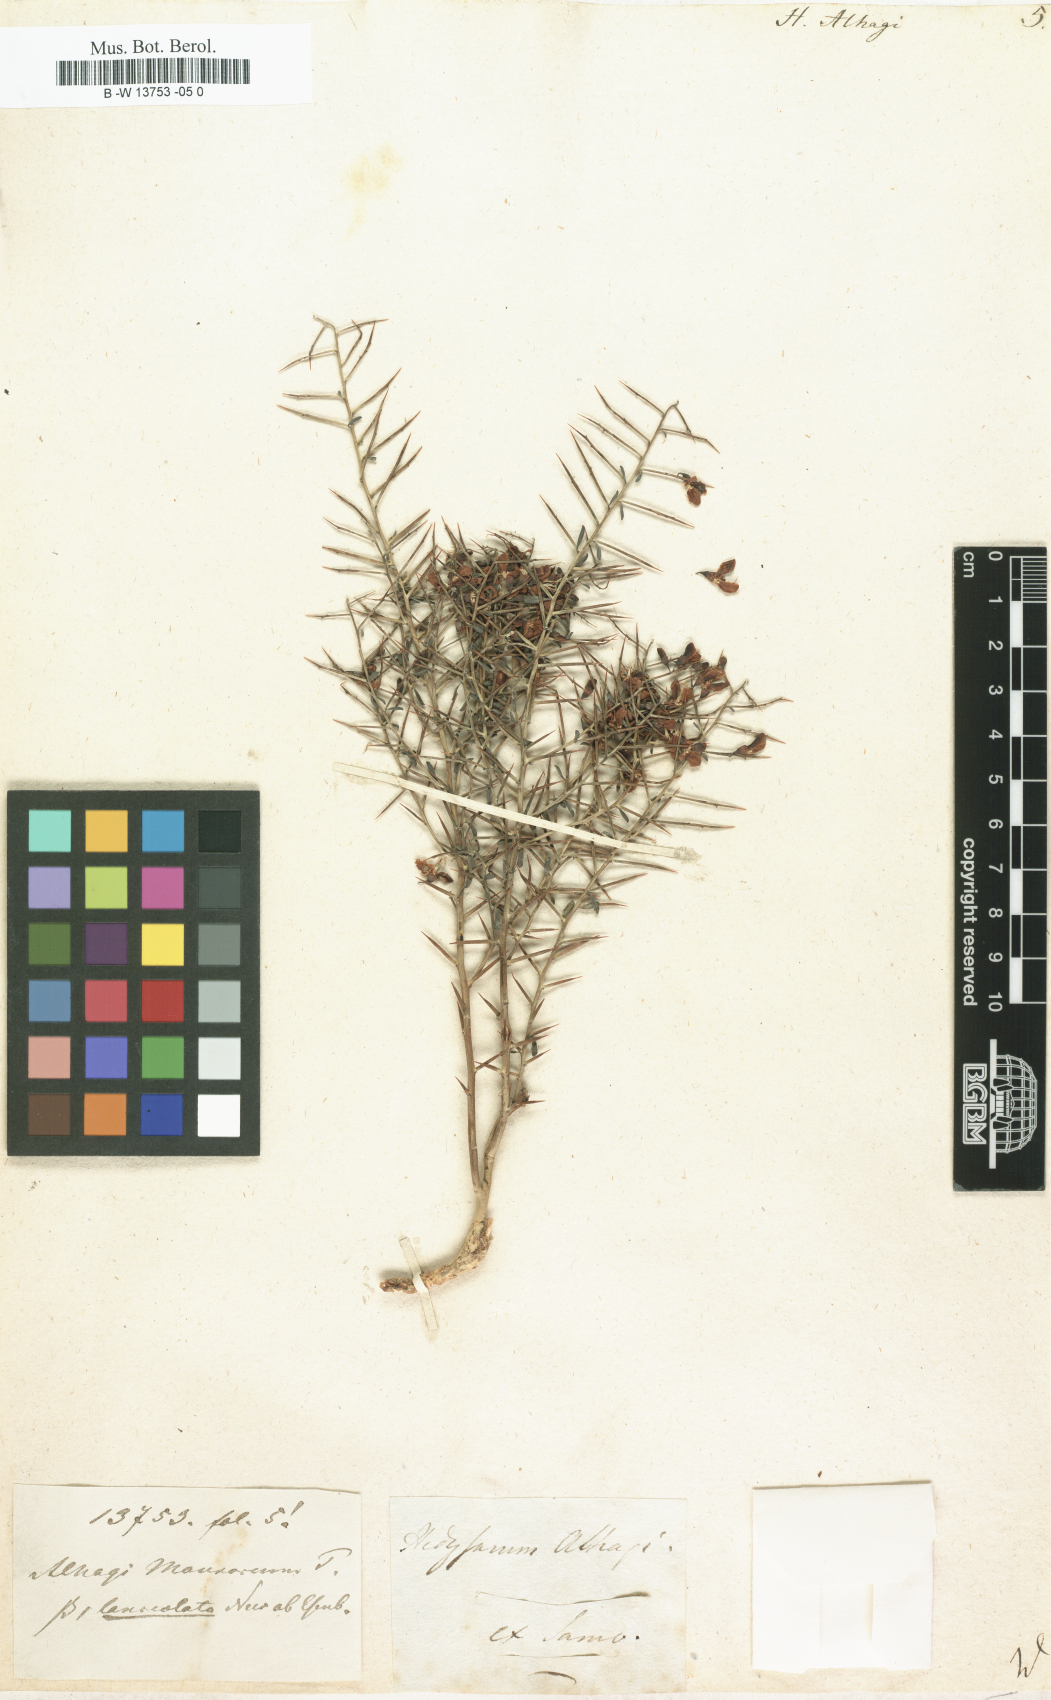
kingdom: Plantae
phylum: Tracheophyta
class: Magnoliopsida
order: Fabales
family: Fabaceae
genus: Alhagi
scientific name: Alhagi maurorum
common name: Camelthorn
